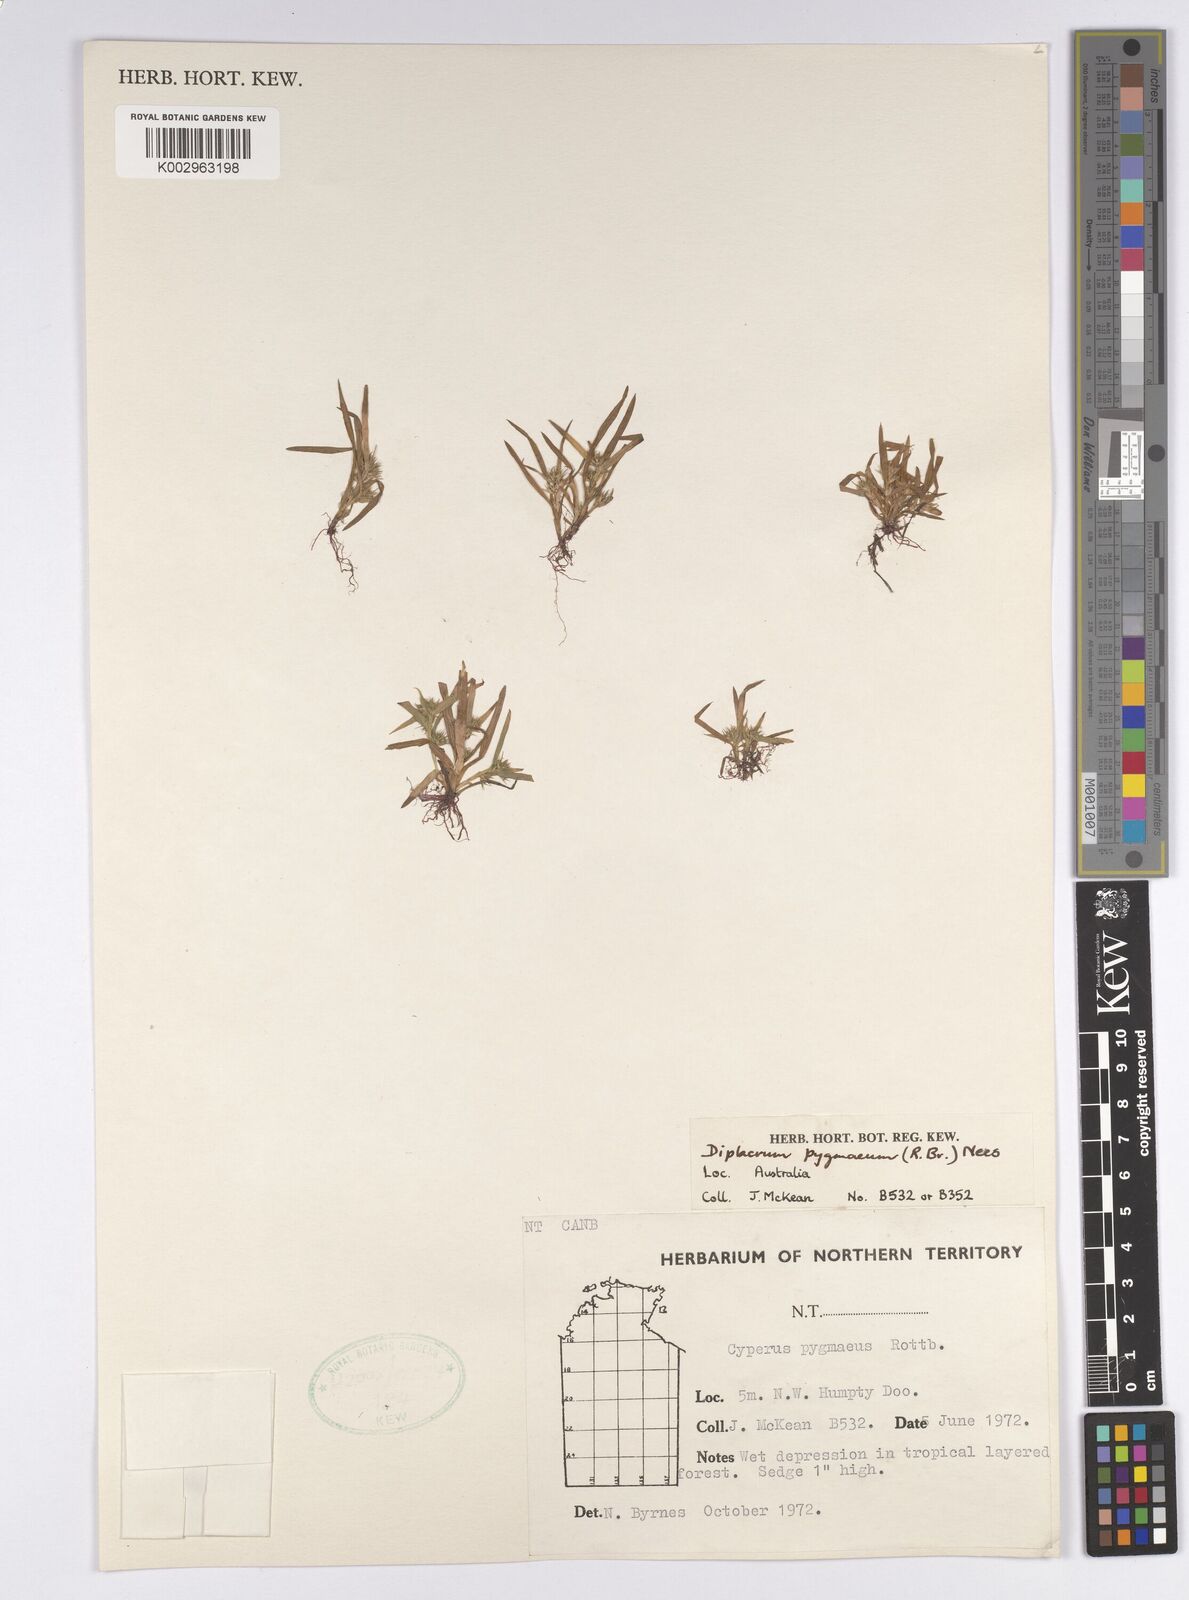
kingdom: Plantae
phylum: Tracheophyta
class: Liliopsida
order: Poales
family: Cyperaceae
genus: Diplacrum
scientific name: Diplacrum pygmaeum
